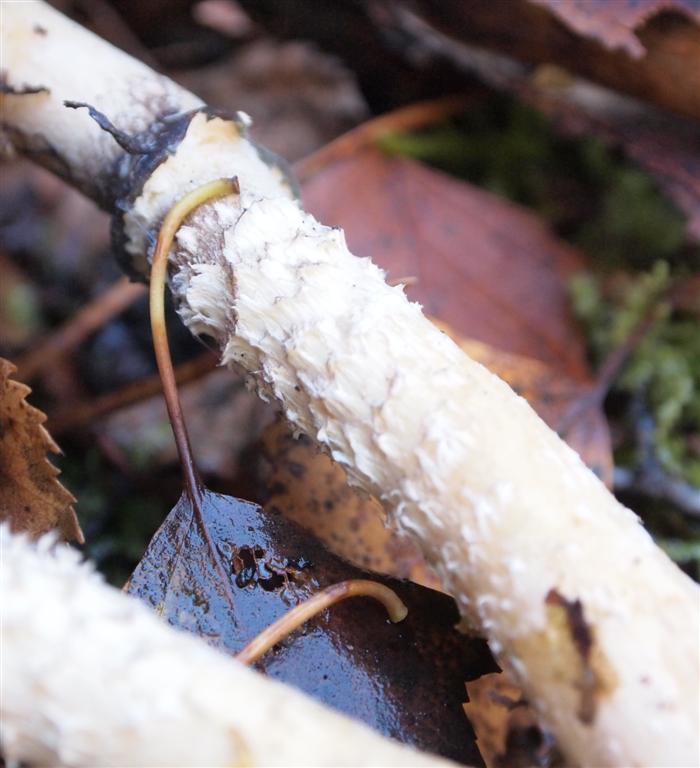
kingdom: Fungi
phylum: Basidiomycota
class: Agaricomycetes
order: Agaricales
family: Strophariaceae
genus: Stropharia
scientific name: Stropharia hornemannii
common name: nordisk bredblad
